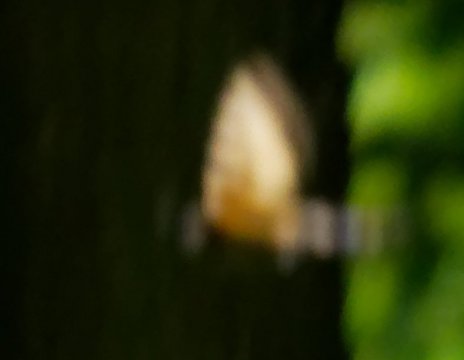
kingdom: Animalia
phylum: Arthropoda
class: Insecta
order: Lepidoptera
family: Papilionidae
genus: Pterourus
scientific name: Pterourus
